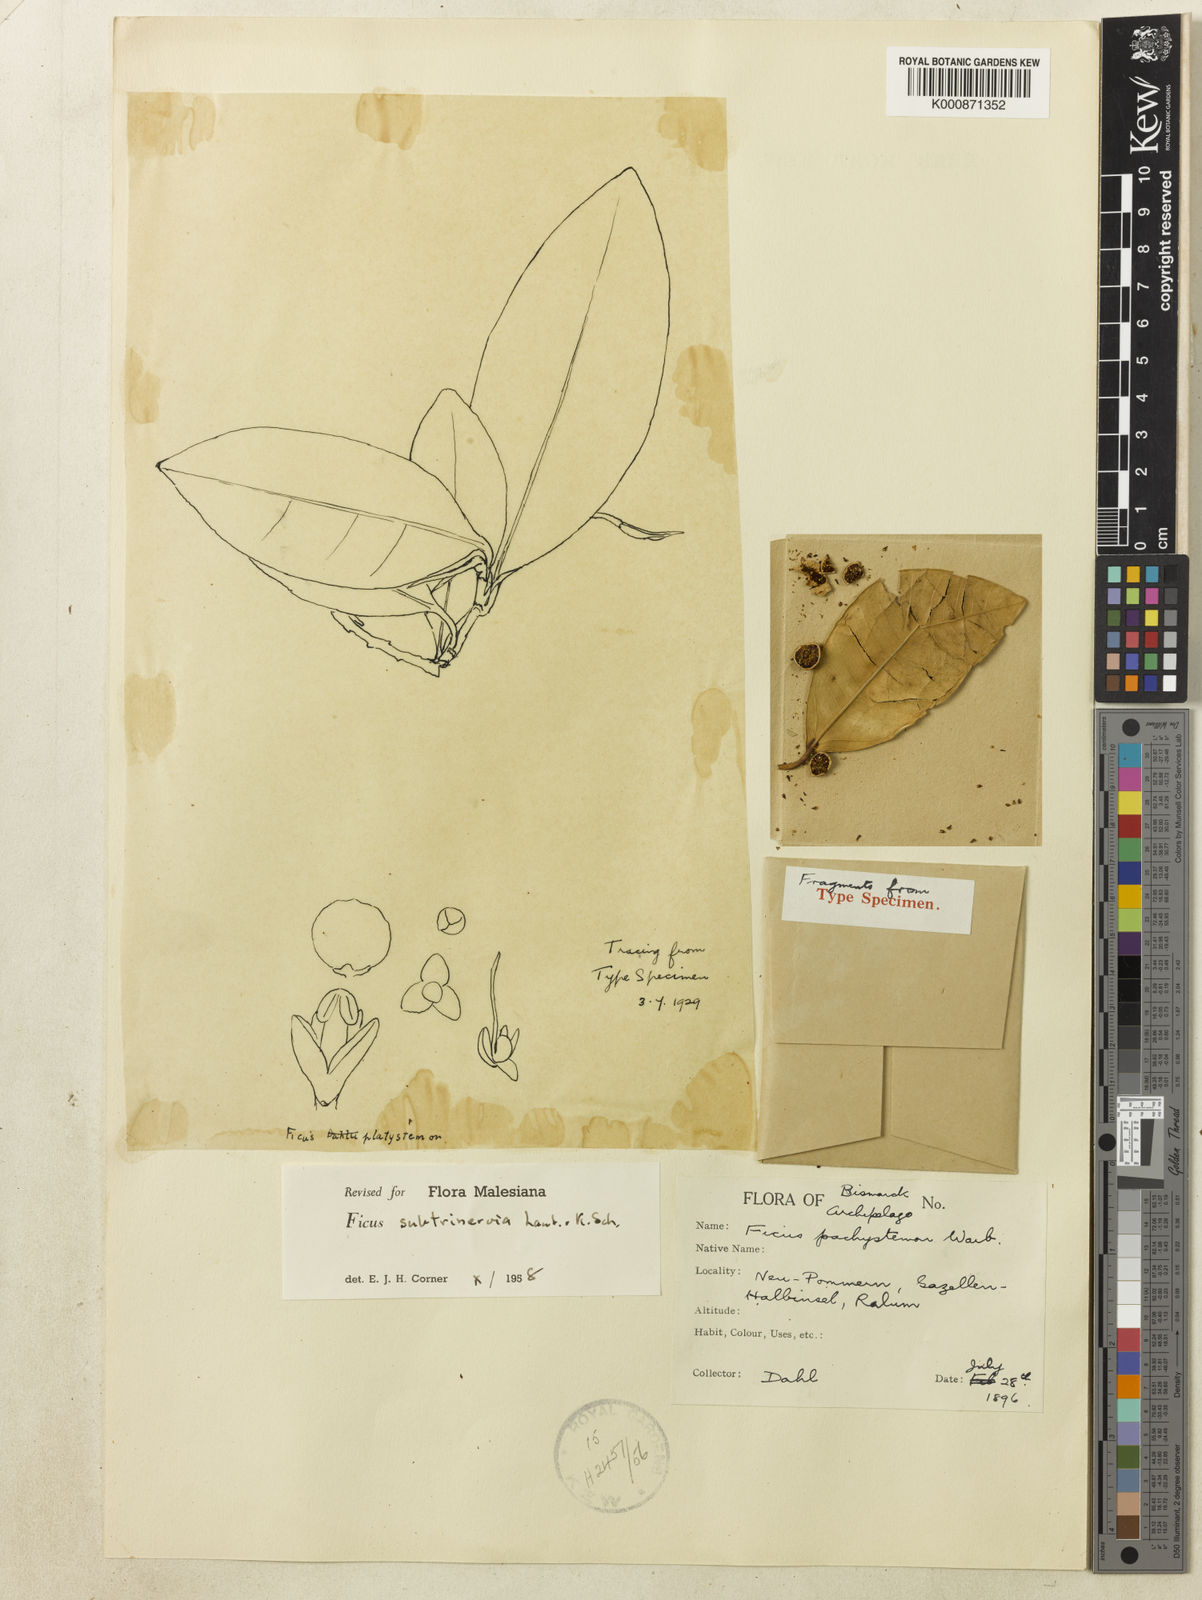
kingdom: Plantae
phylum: Tracheophyta
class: Magnoliopsida
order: Rosales
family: Moraceae
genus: Ficus
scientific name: Ficus subtrinervia
